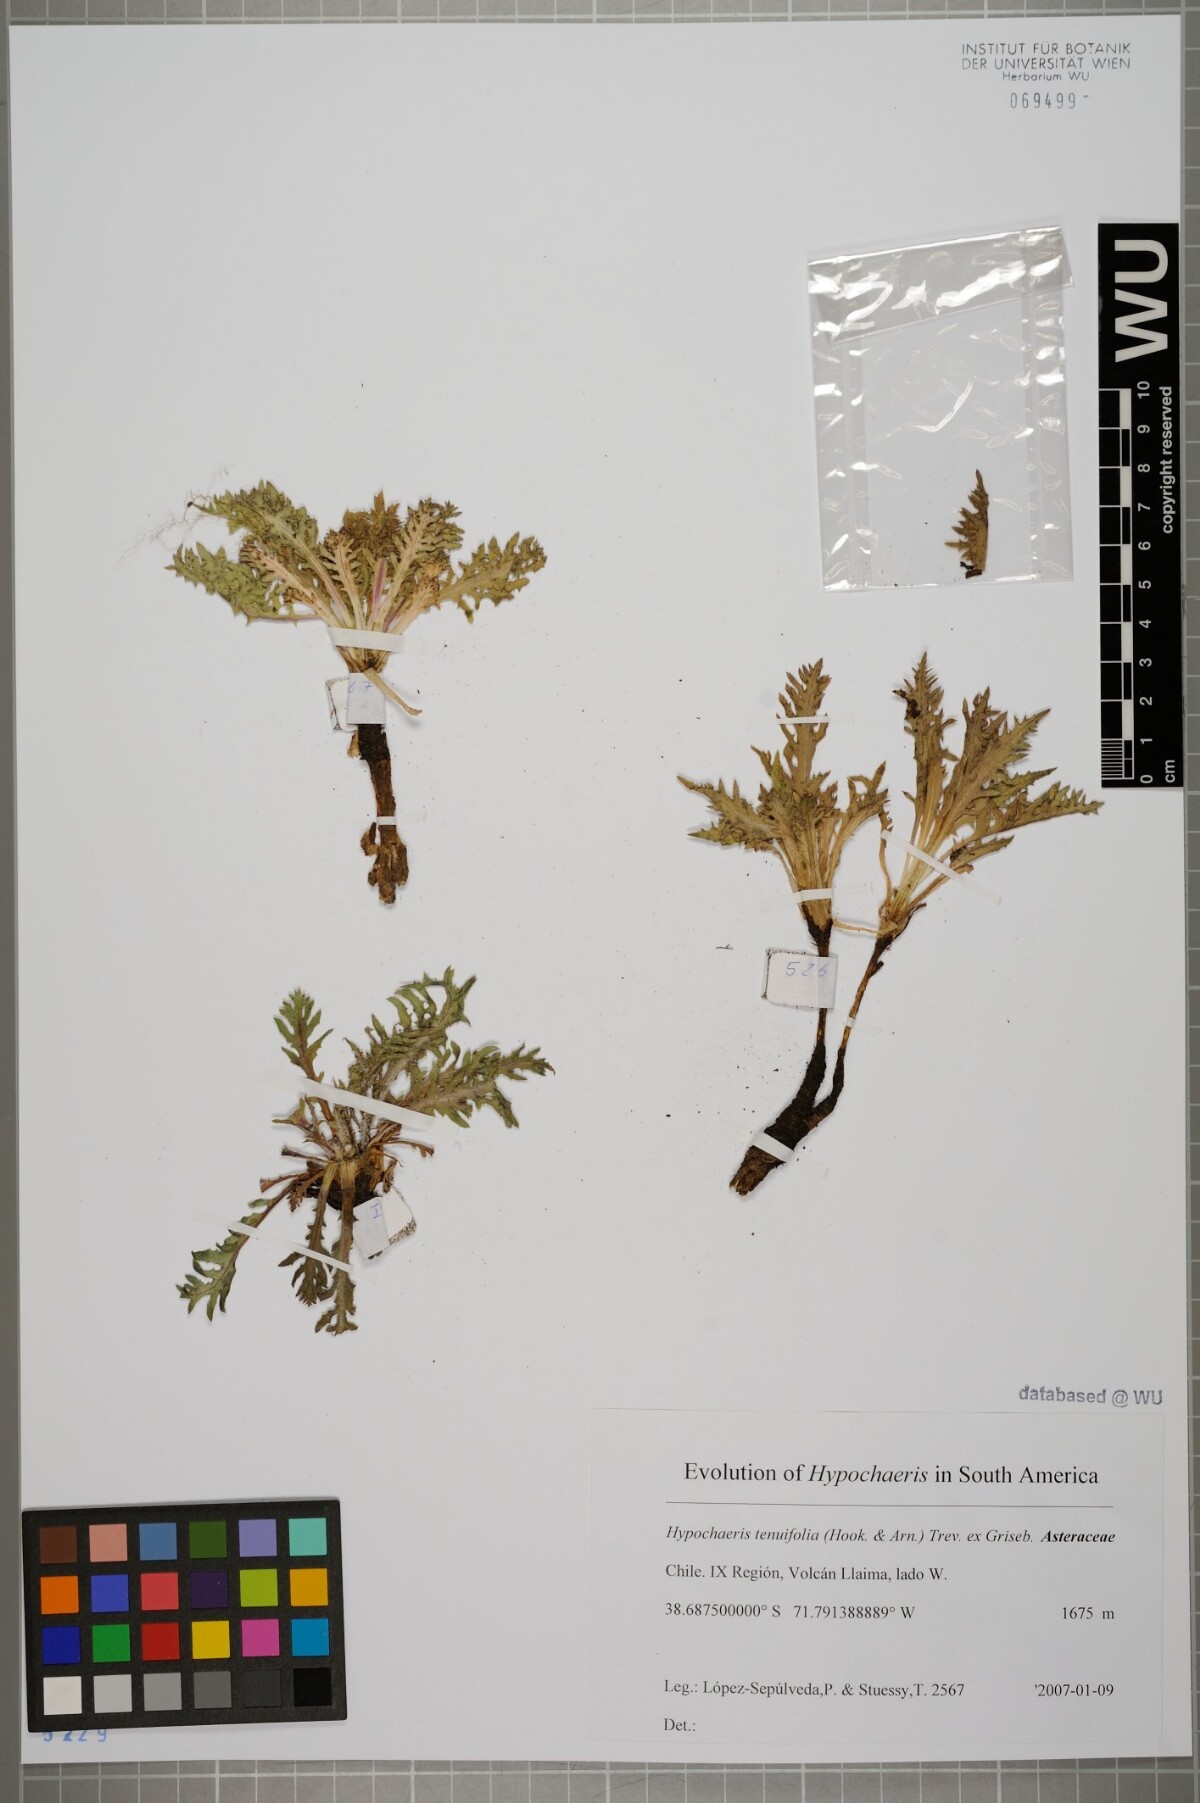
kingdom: Plantae
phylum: Tracheophyta
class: Magnoliopsida
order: Asterales
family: Asteraceae
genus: Hypochaeris
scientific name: Hypochaeris tenuifolia
